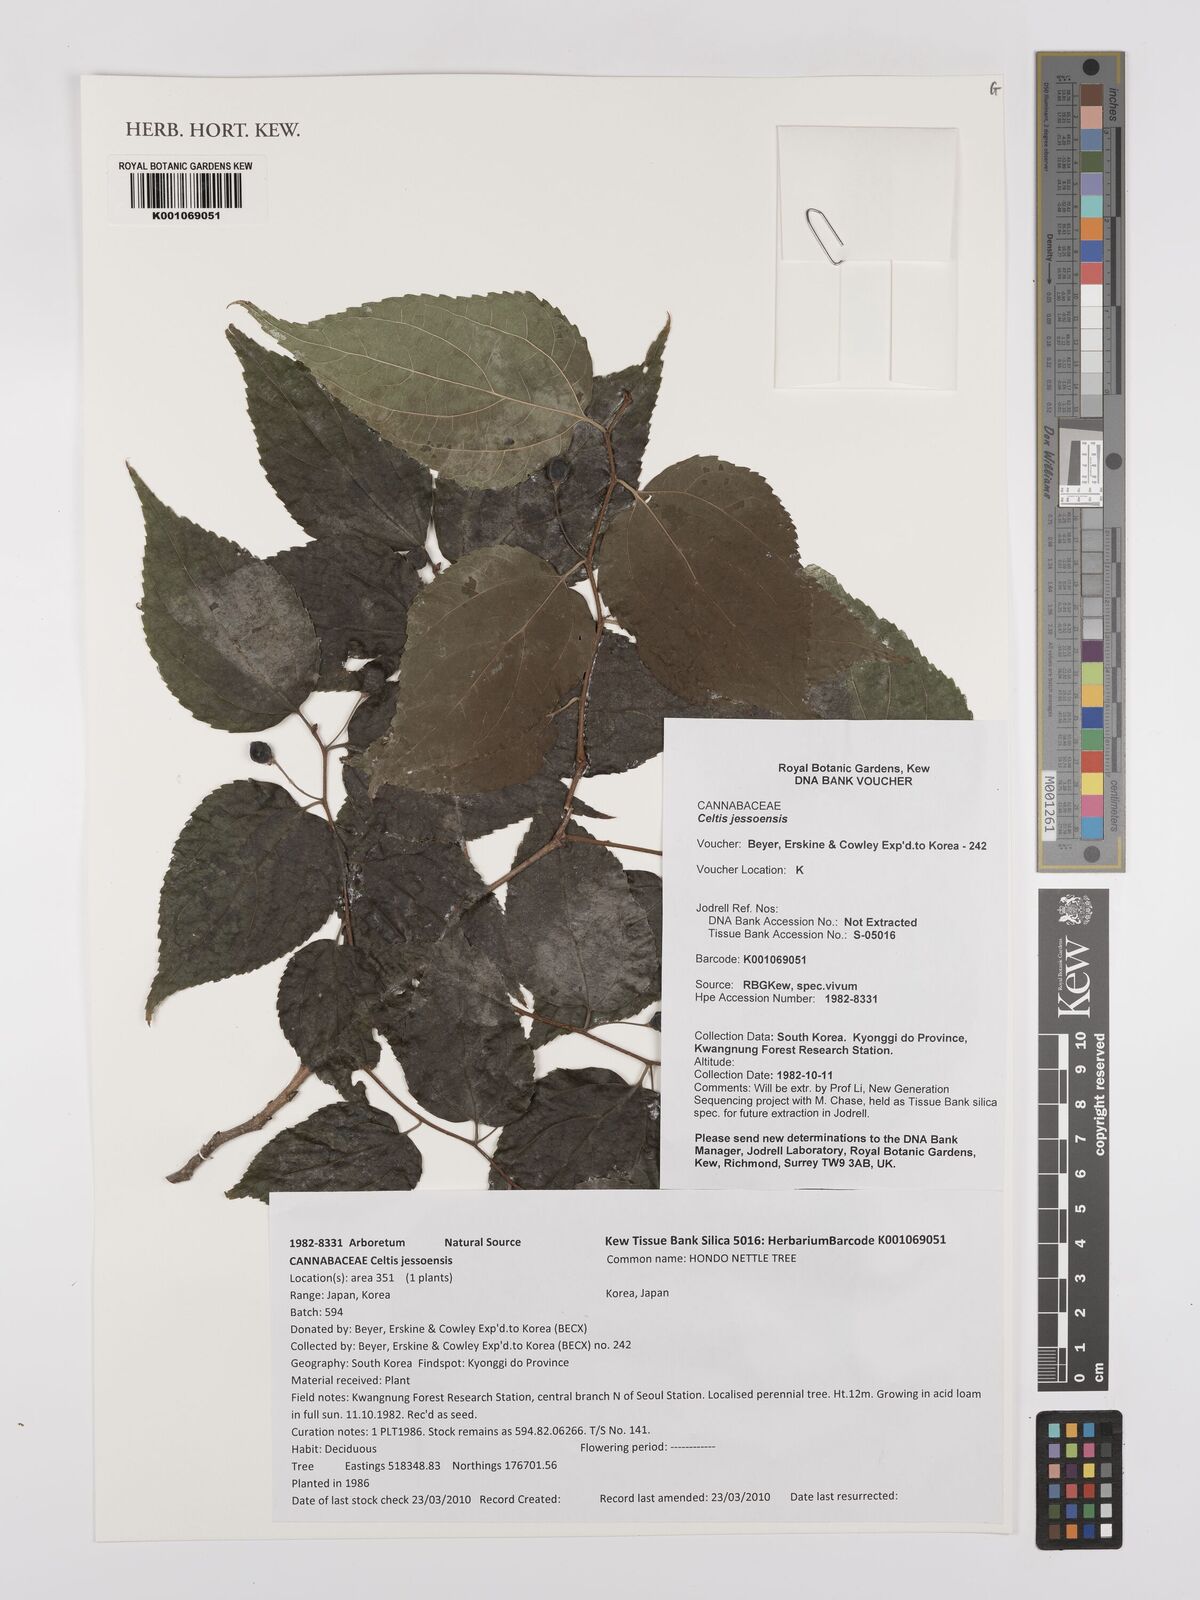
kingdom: Plantae
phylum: Tracheophyta
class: Magnoliopsida
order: Rosales
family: Cannabaceae
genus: Celtis
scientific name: Celtis jessoensis
